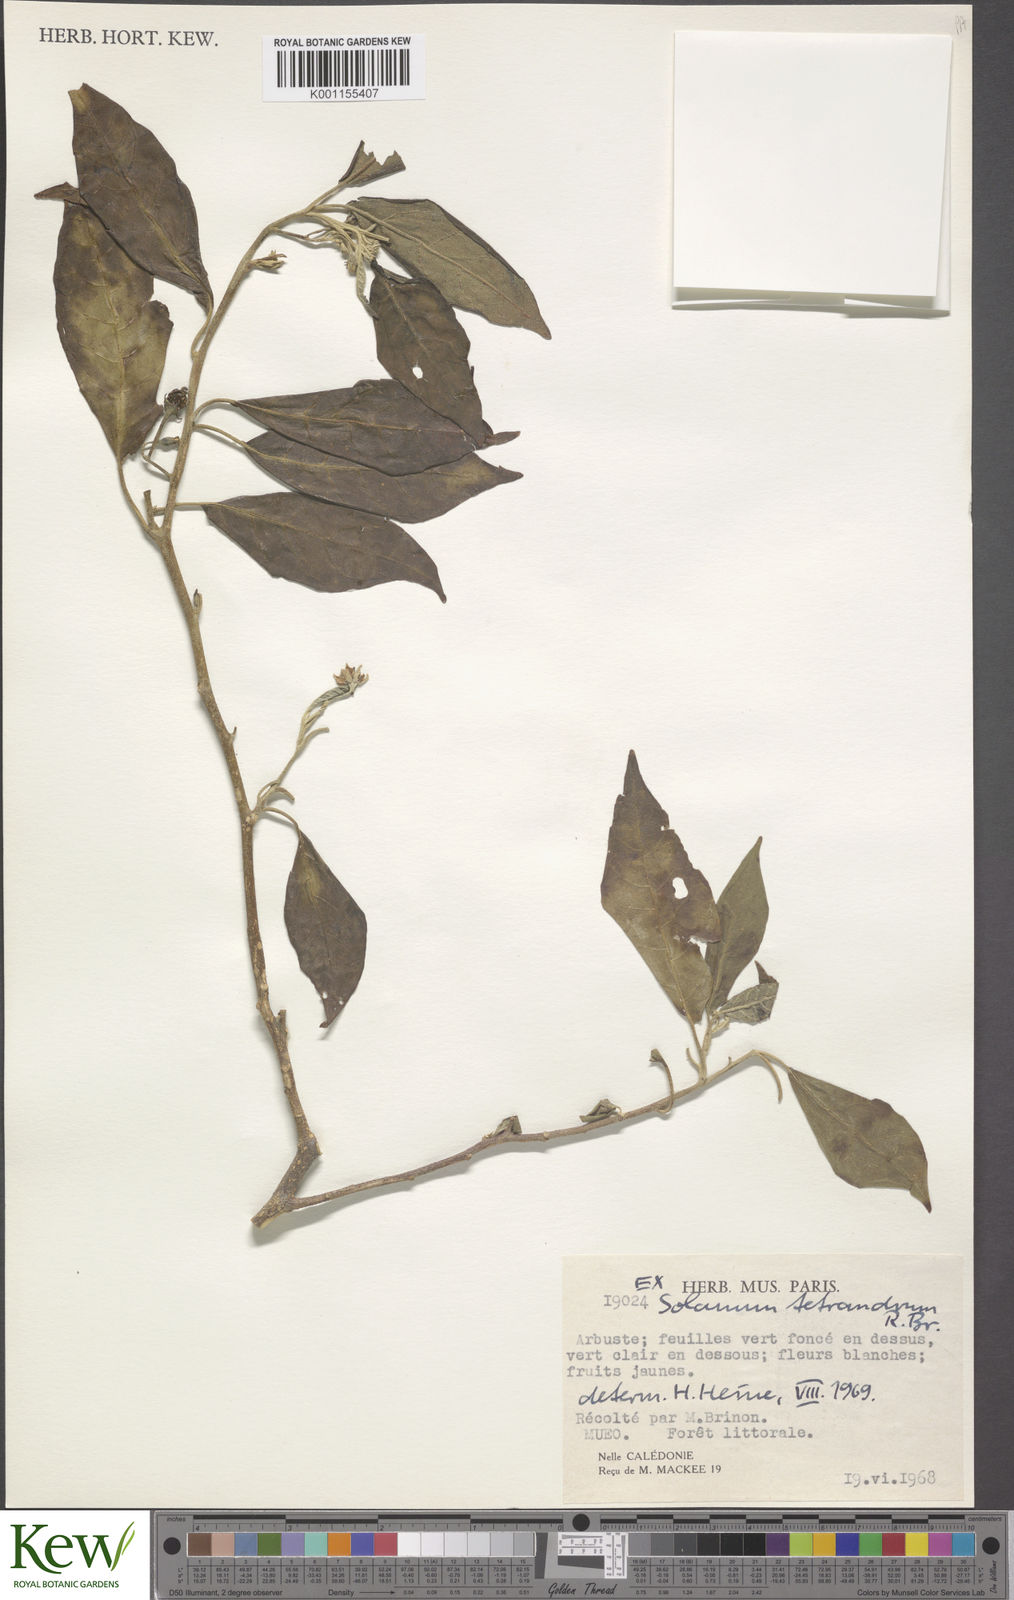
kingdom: Plantae
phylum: Tracheophyta
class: Magnoliopsida
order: Solanales
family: Solanaceae
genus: Solanum
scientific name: Solanum tetrandrum
